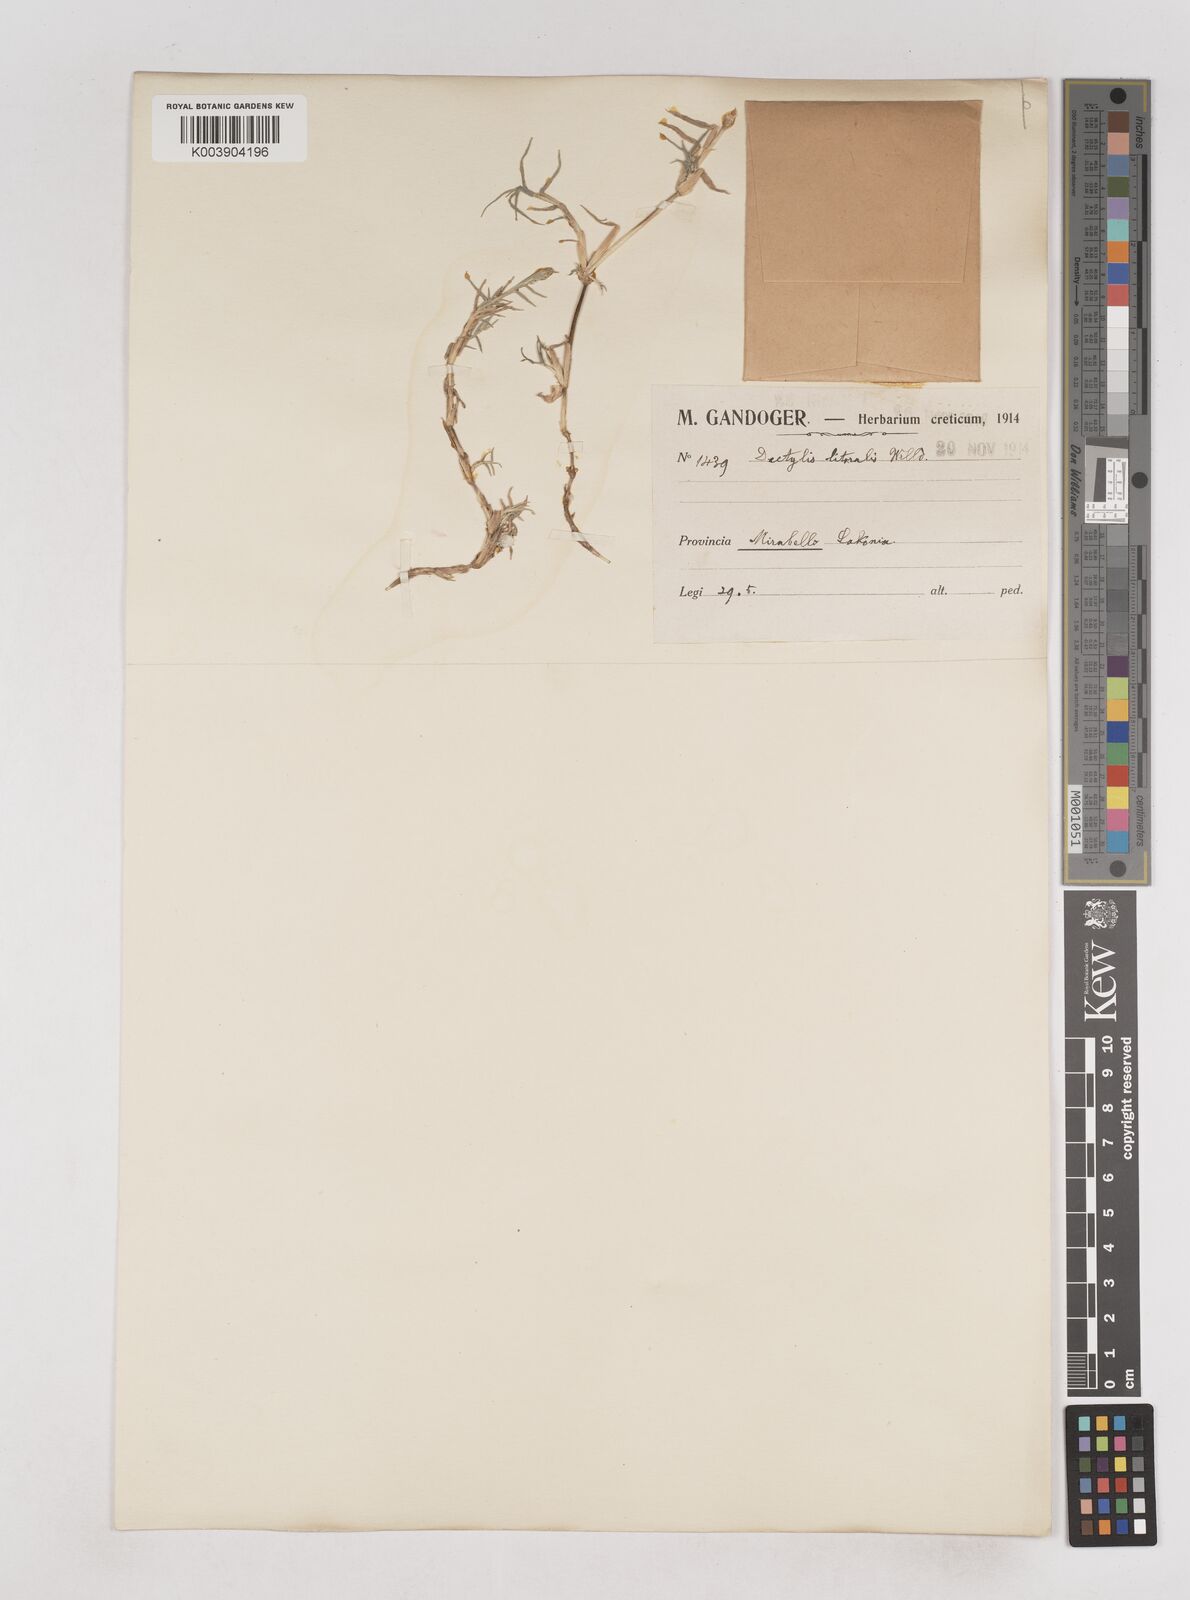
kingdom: Plantae
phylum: Tracheophyta
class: Liliopsida
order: Poales
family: Poaceae
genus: Aeluropus
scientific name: Aeluropus littoralis
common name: Indian walnut
